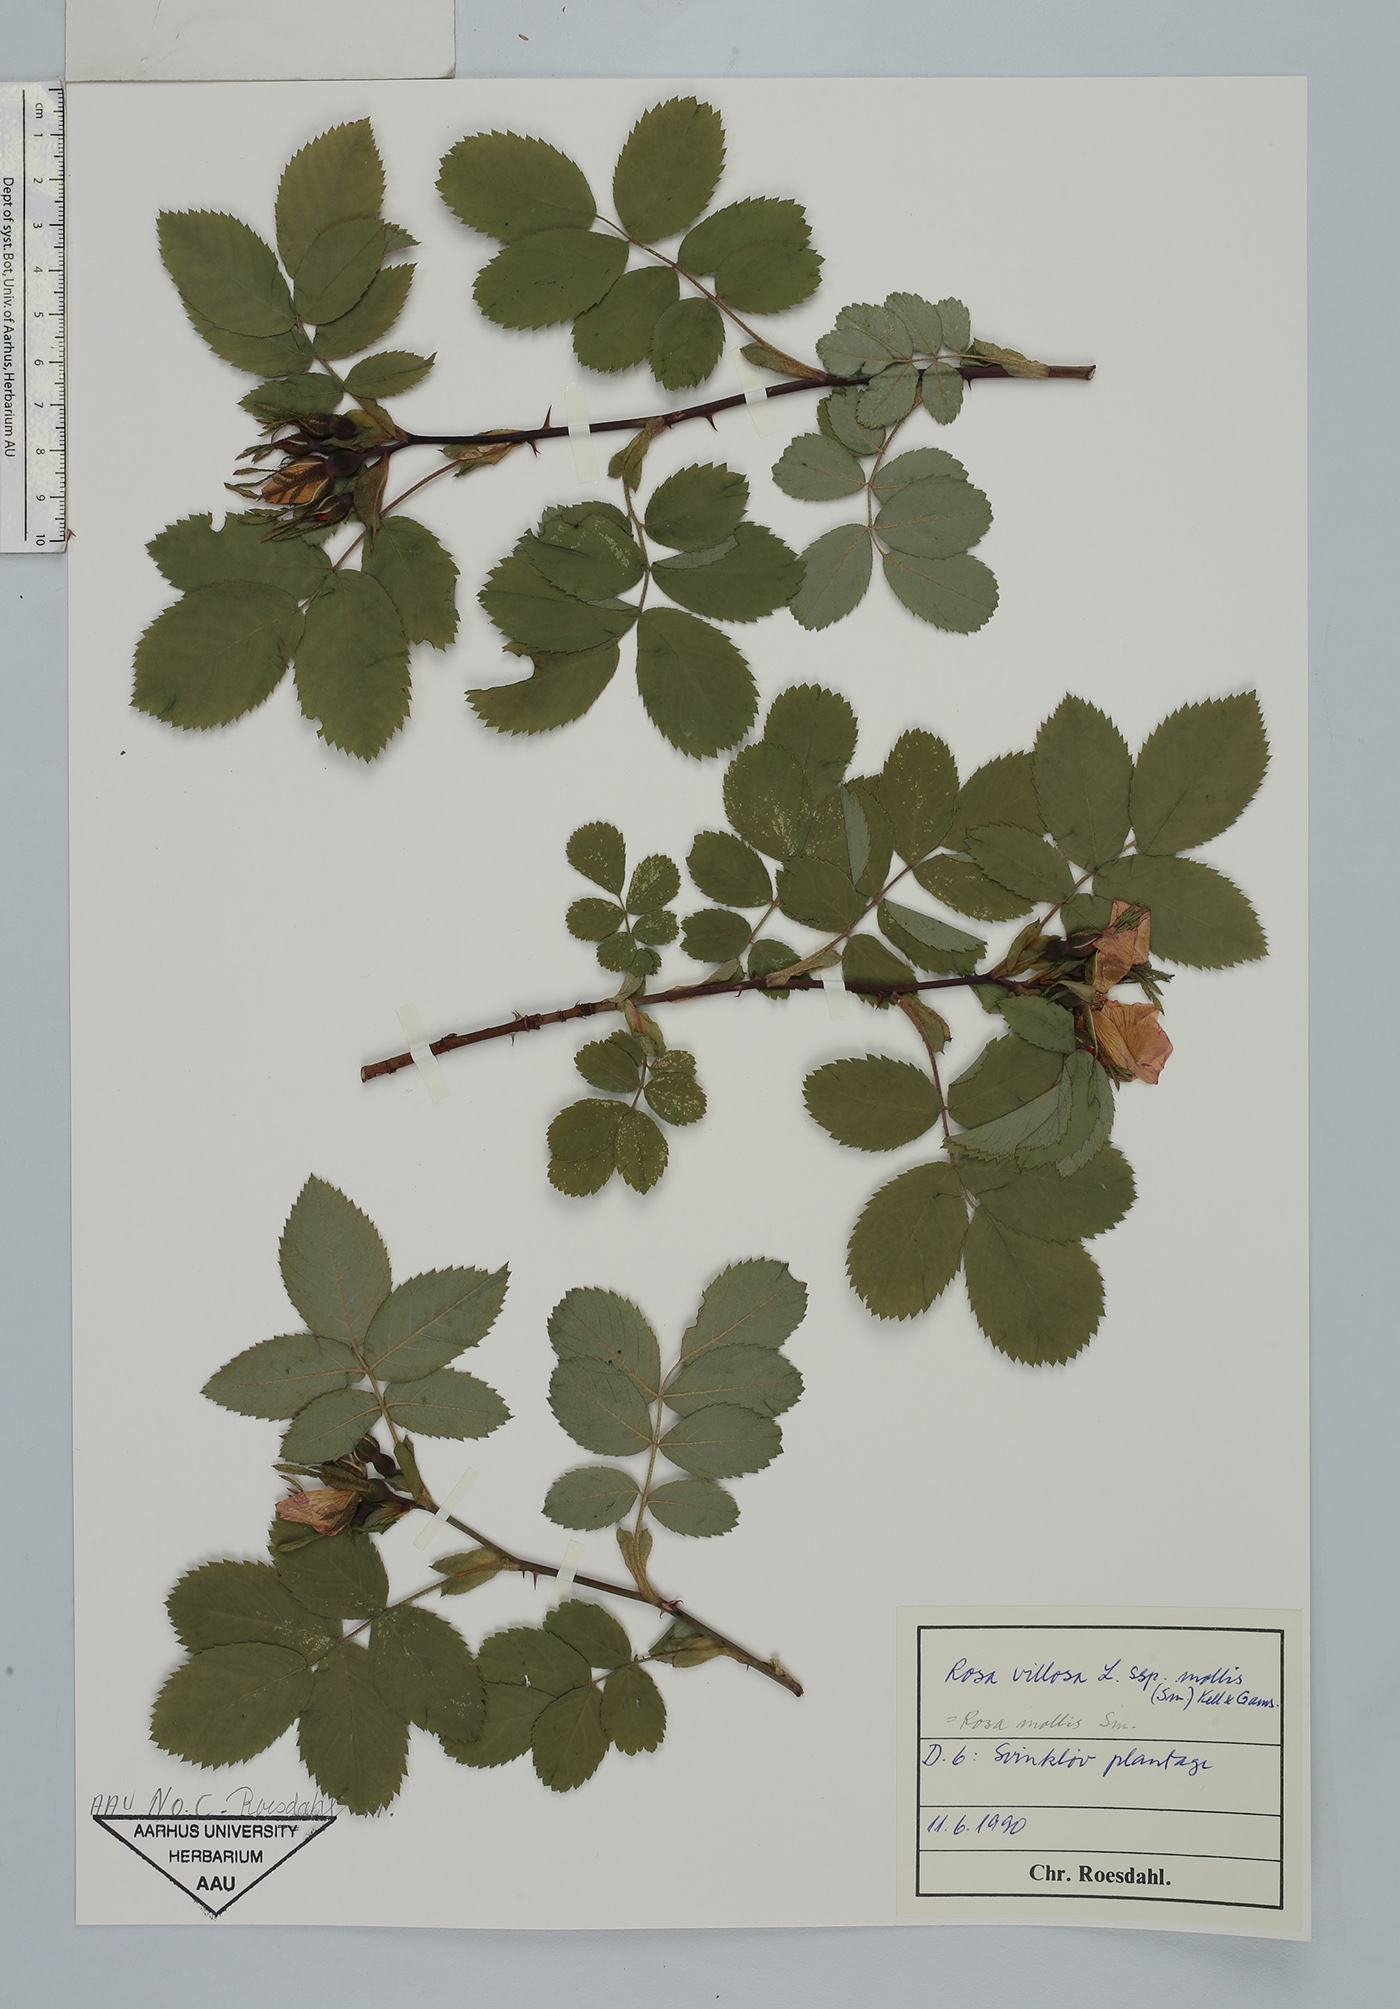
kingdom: Plantae
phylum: Tracheophyta
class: Magnoliopsida
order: Rosales
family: Rosaceae
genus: Rosa
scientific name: Rosa villosa
